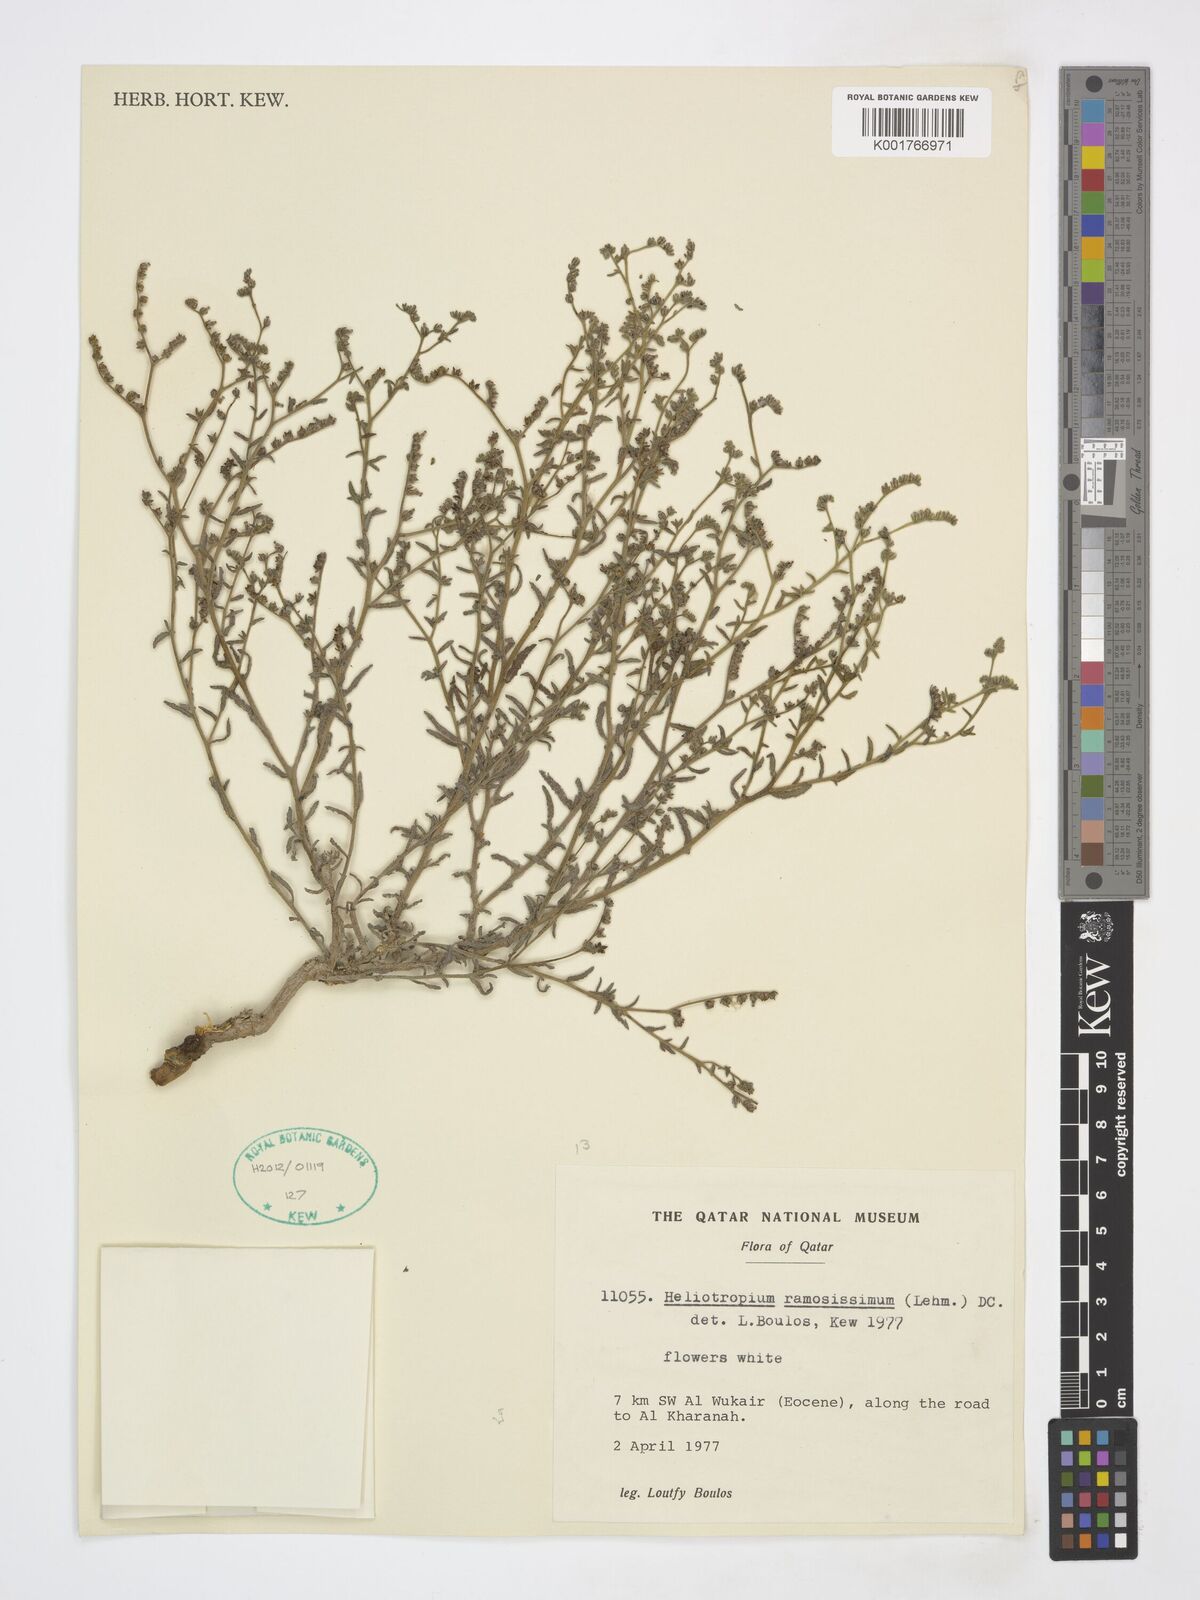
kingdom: Plantae
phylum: Tracheophyta
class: Magnoliopsida
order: Boraginales
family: Heliotropiaceae
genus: Heliotropium
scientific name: Heliotropium ramosissimum
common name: Wavy heliotrope
